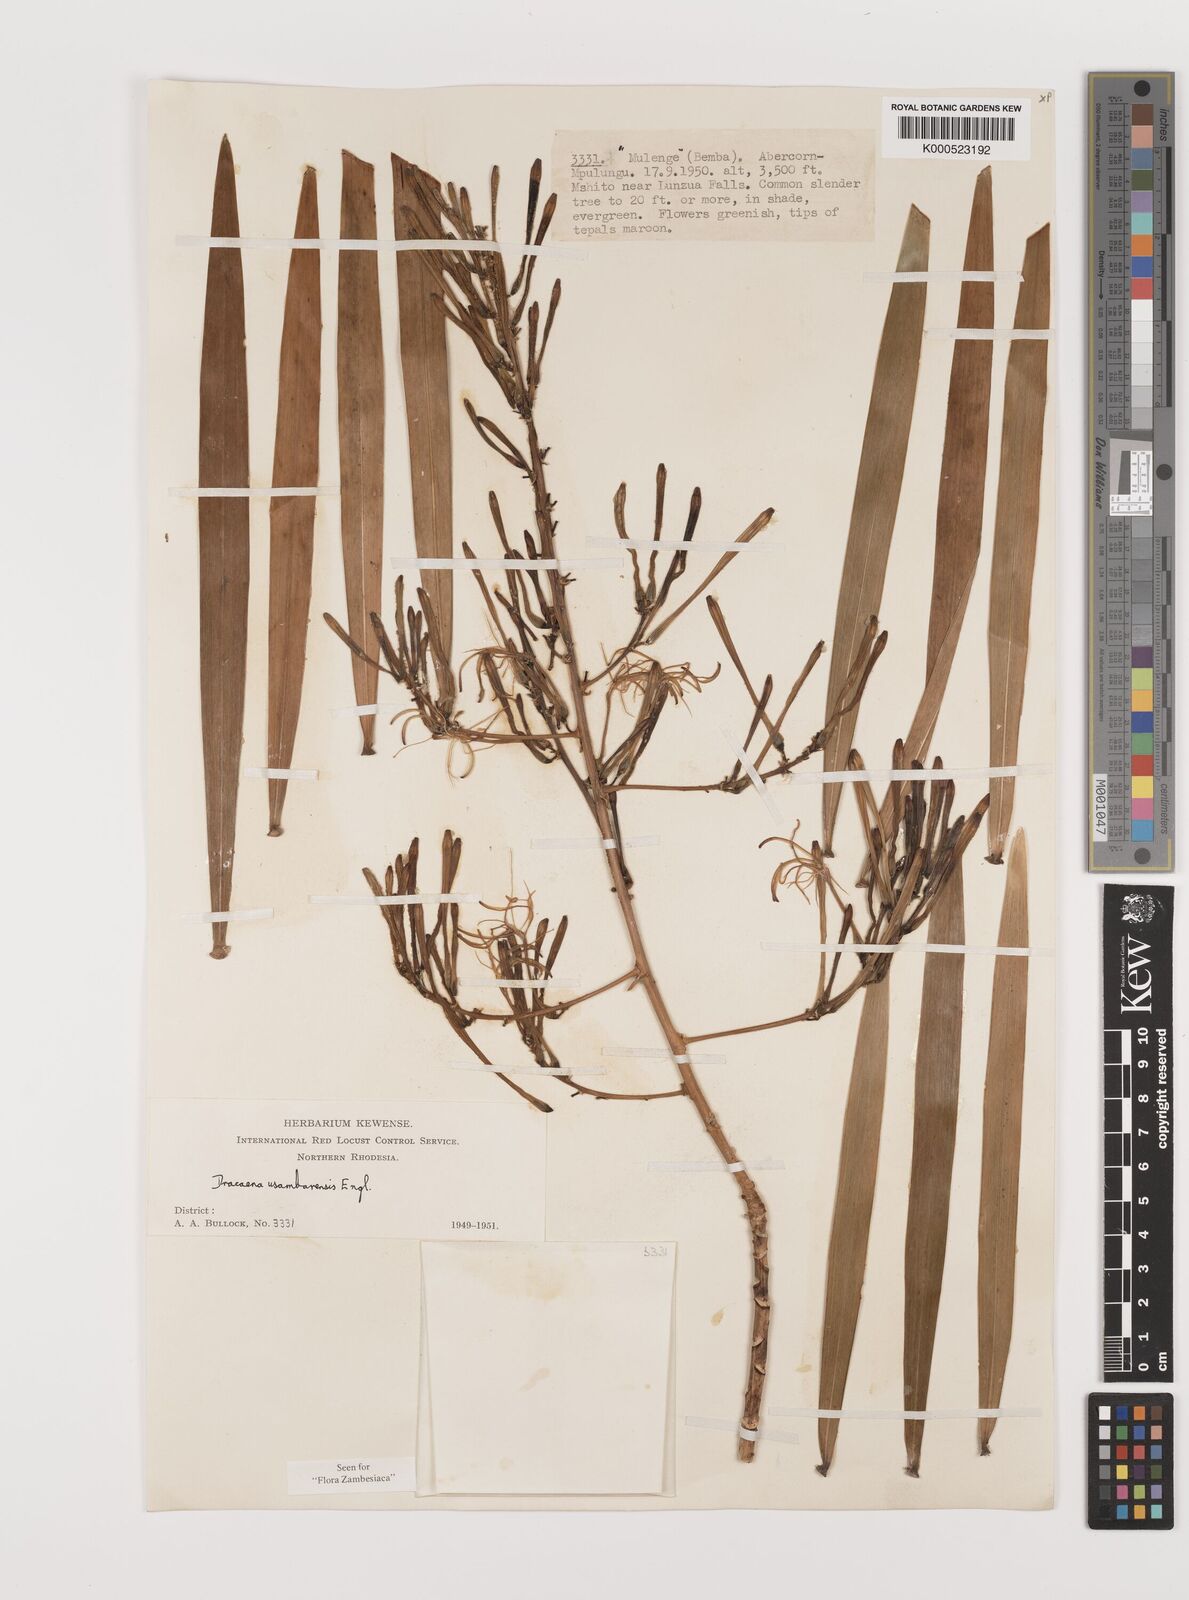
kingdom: Plantae
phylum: Tracheophyta
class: Liliopsida
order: Asparagales
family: Asparagaceae
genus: Dracaena
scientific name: Dracaena usambarensis
